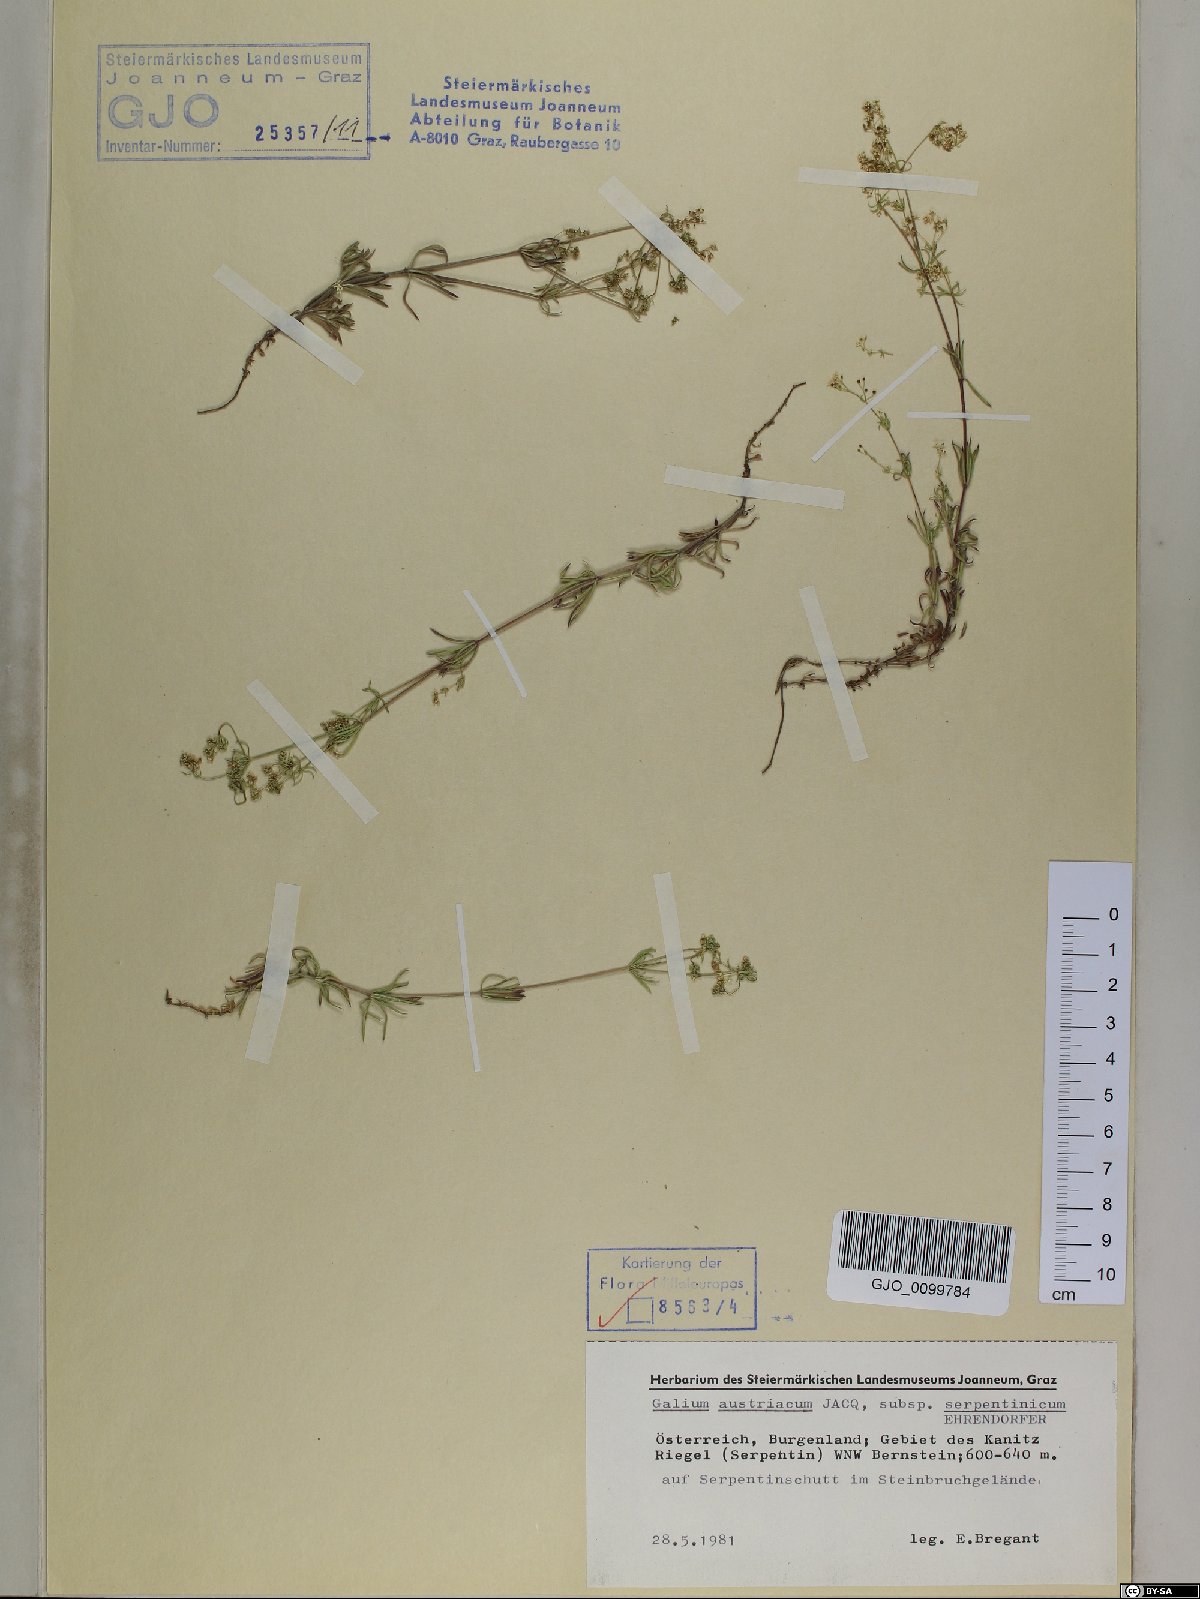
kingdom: Plantae
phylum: Tracheophyta
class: Magnoliopsida
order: Gentianales
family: Rubiaceae
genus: Galium
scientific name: Galium austriacum
